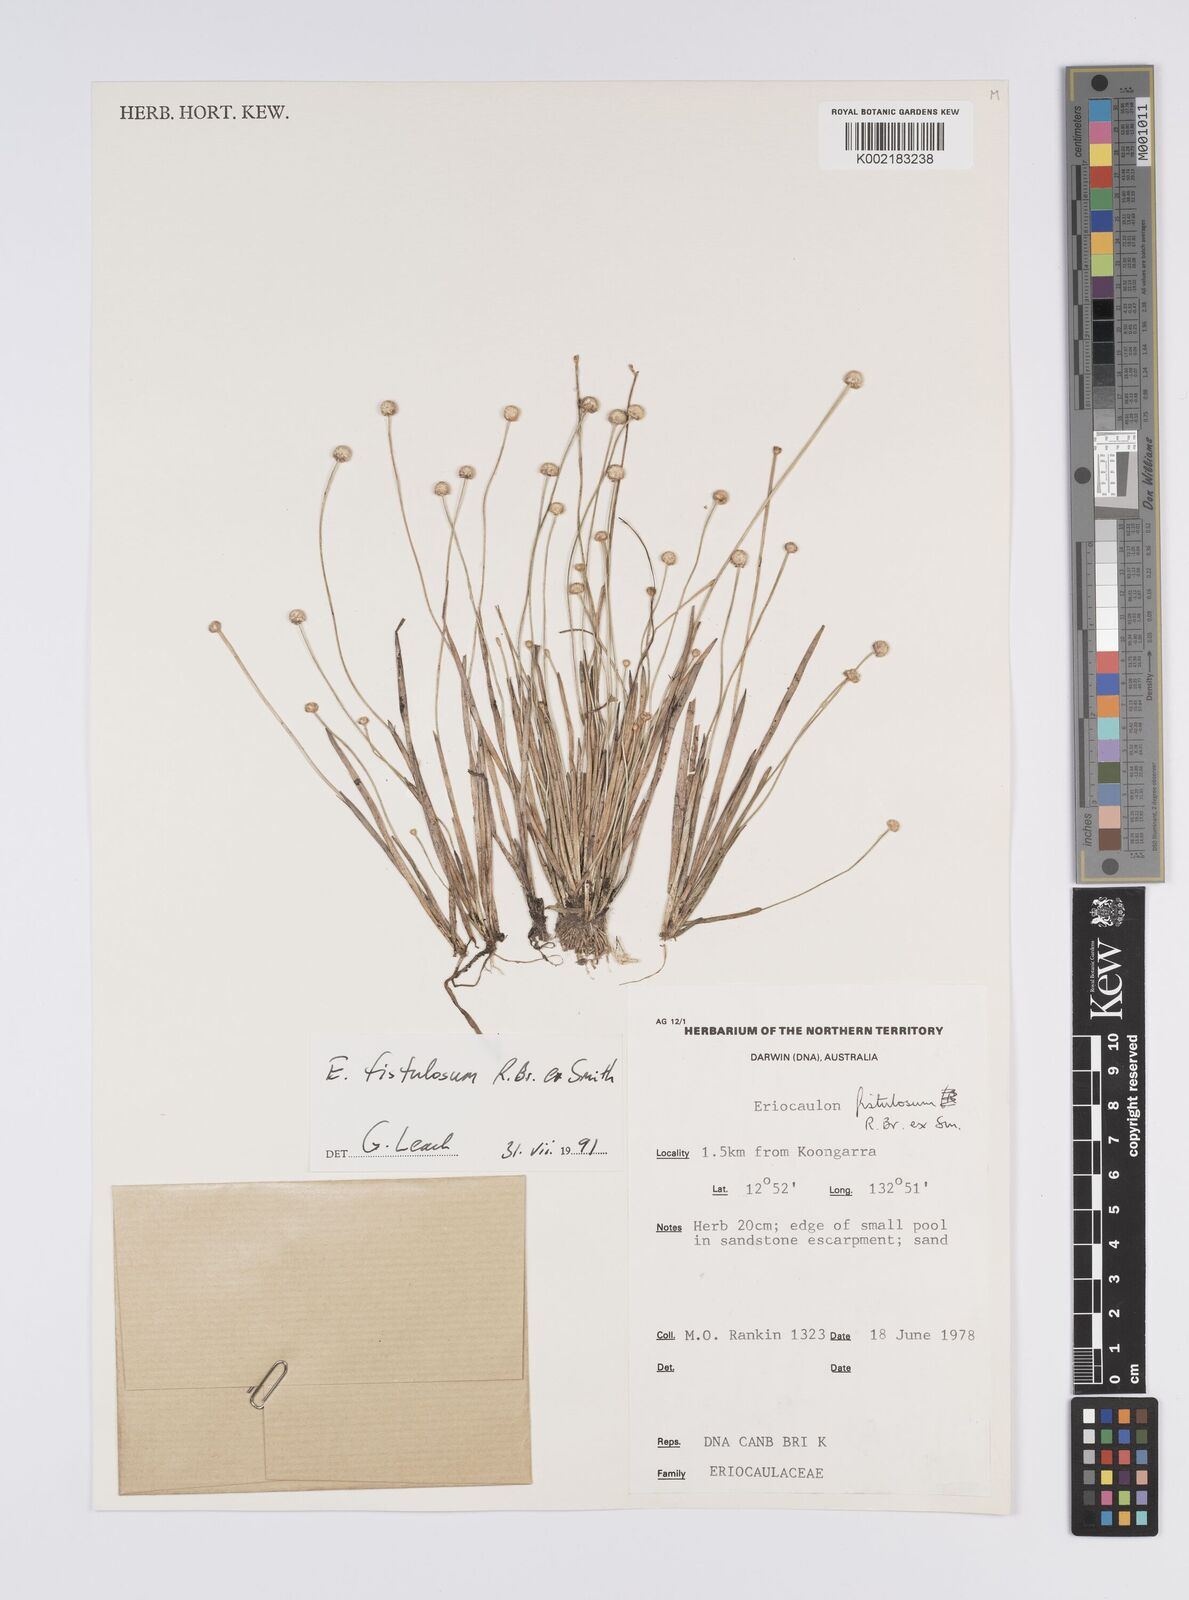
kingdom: Plantae
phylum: Tracheophyta
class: Liliopsida
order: Poales
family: Eriocaulaceae
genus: Eriocaulon
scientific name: Eriocaulon fistulosum
